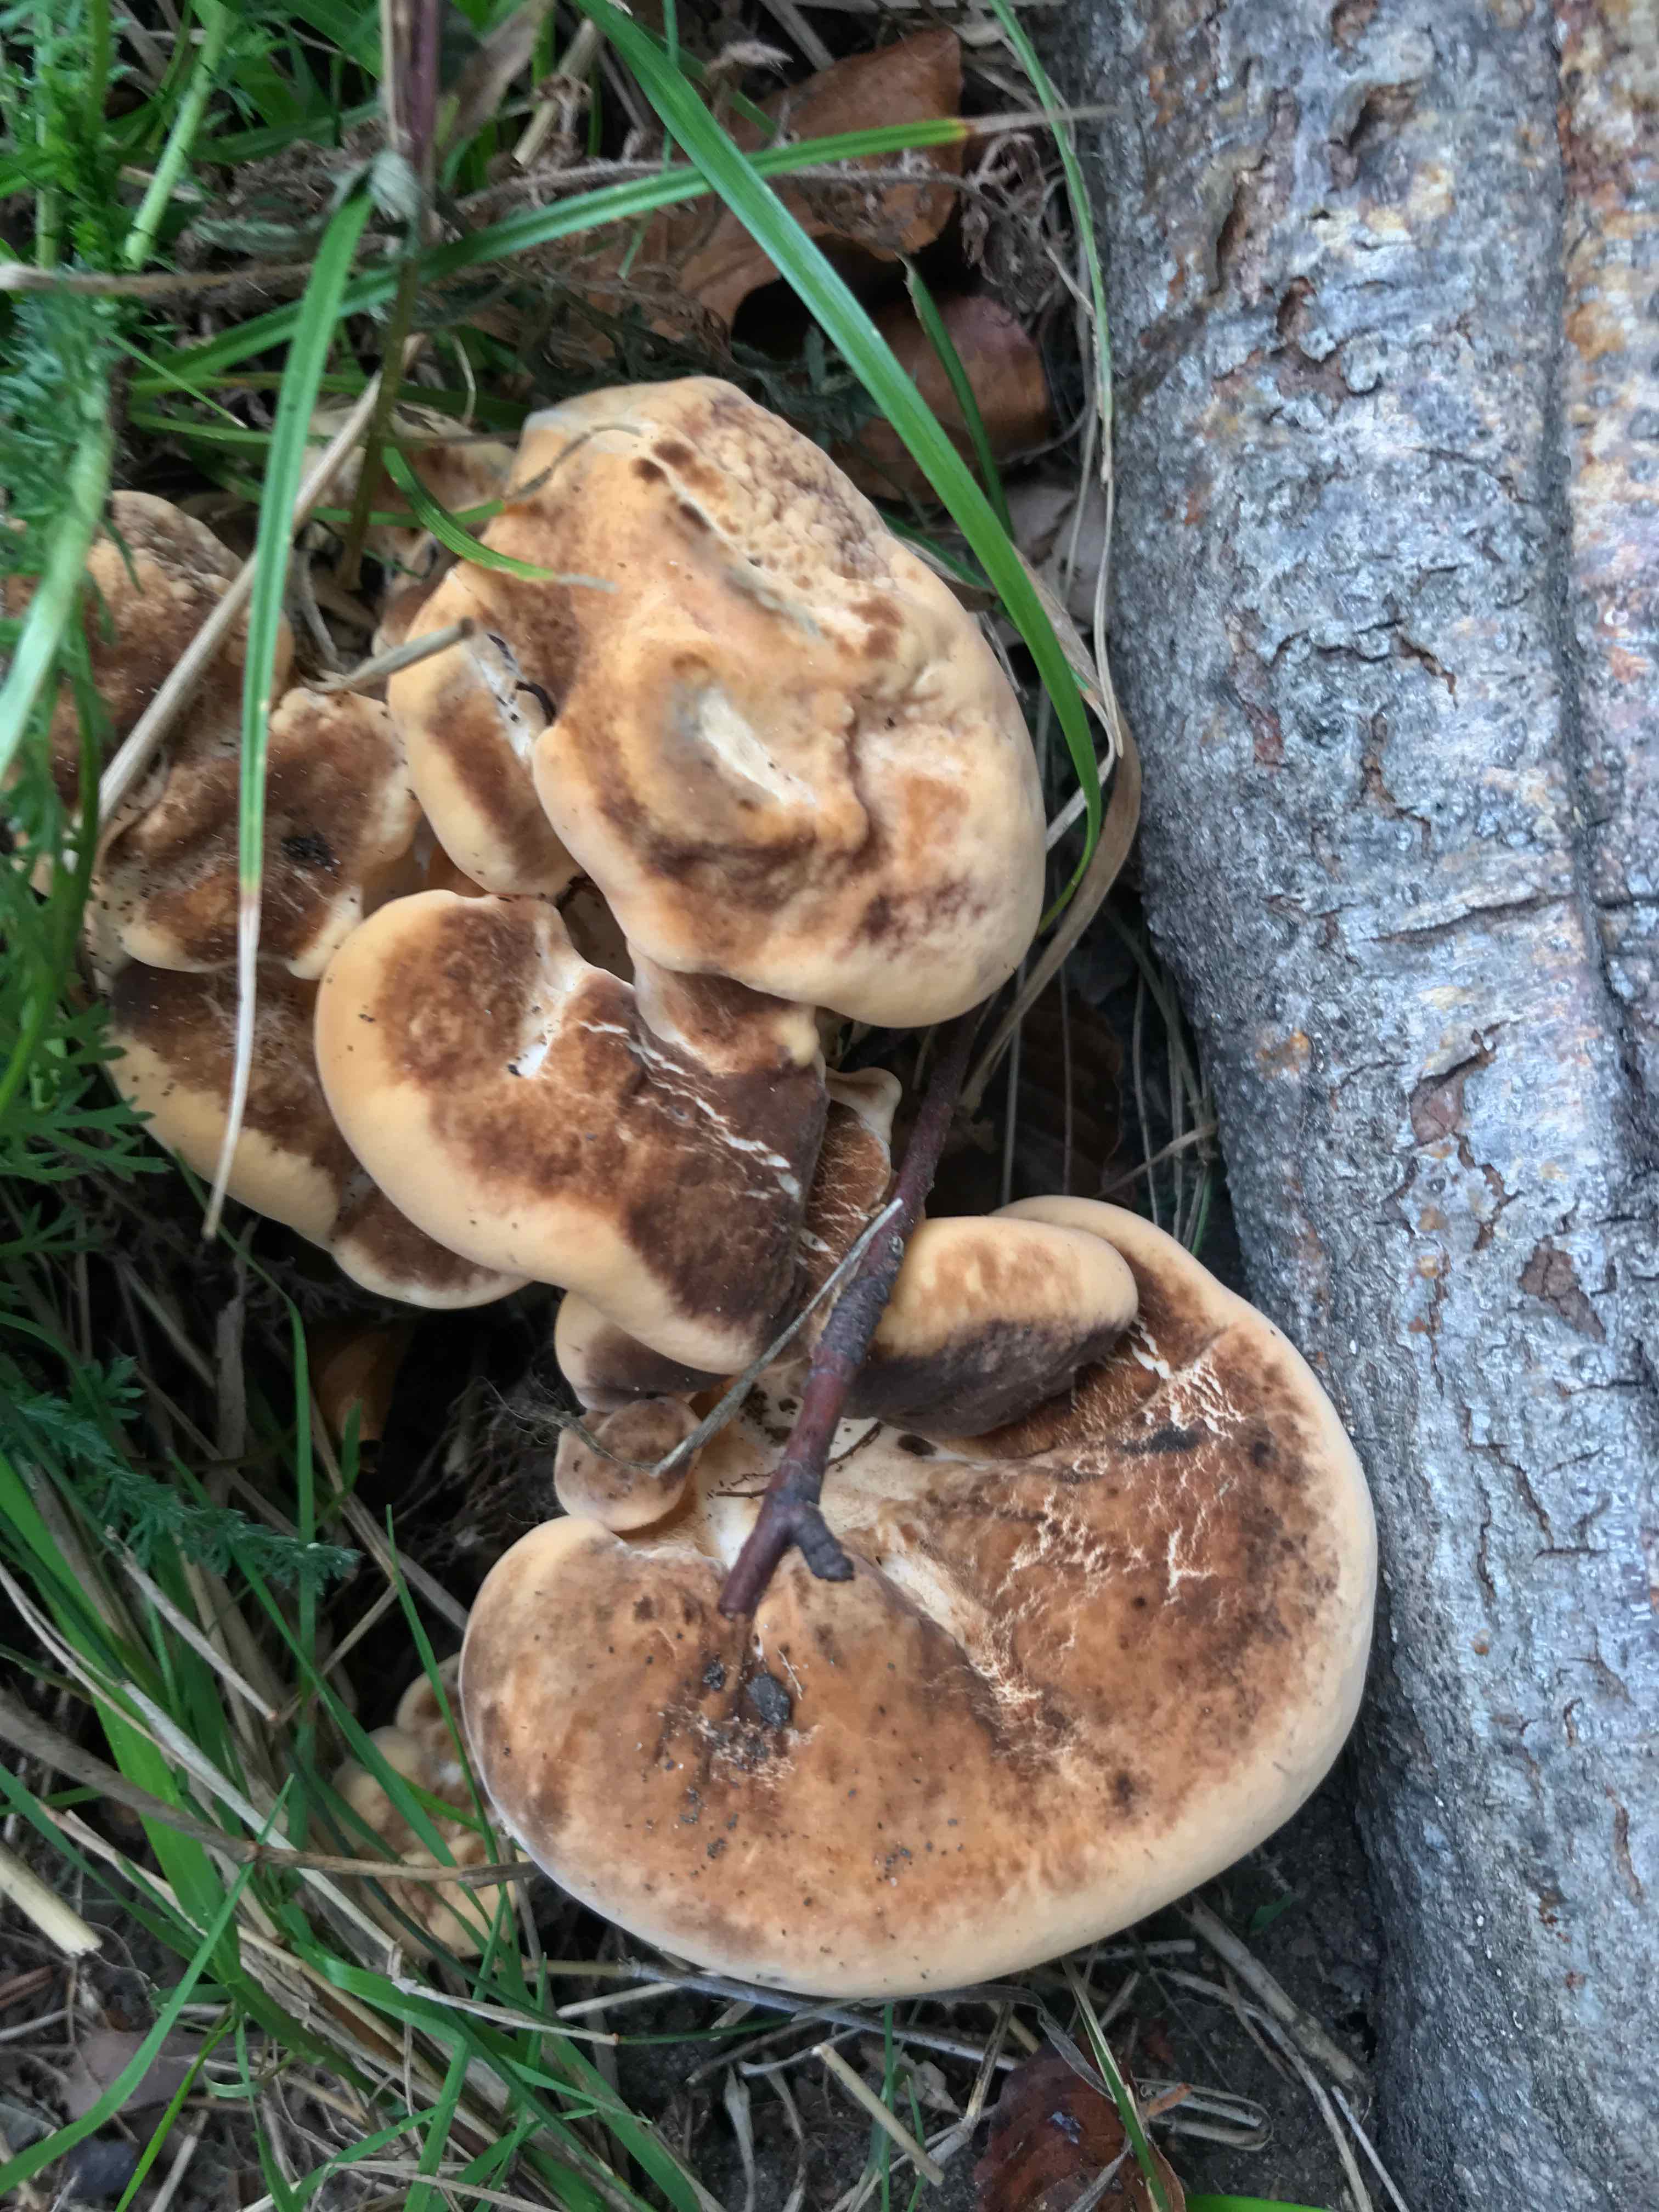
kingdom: Fungi
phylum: Basidiomycota
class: Agaricomycetes
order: Polyporales
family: Meripilaceae
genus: Meripilus
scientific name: Meripilus giganteus
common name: kæmpeporesvamp
